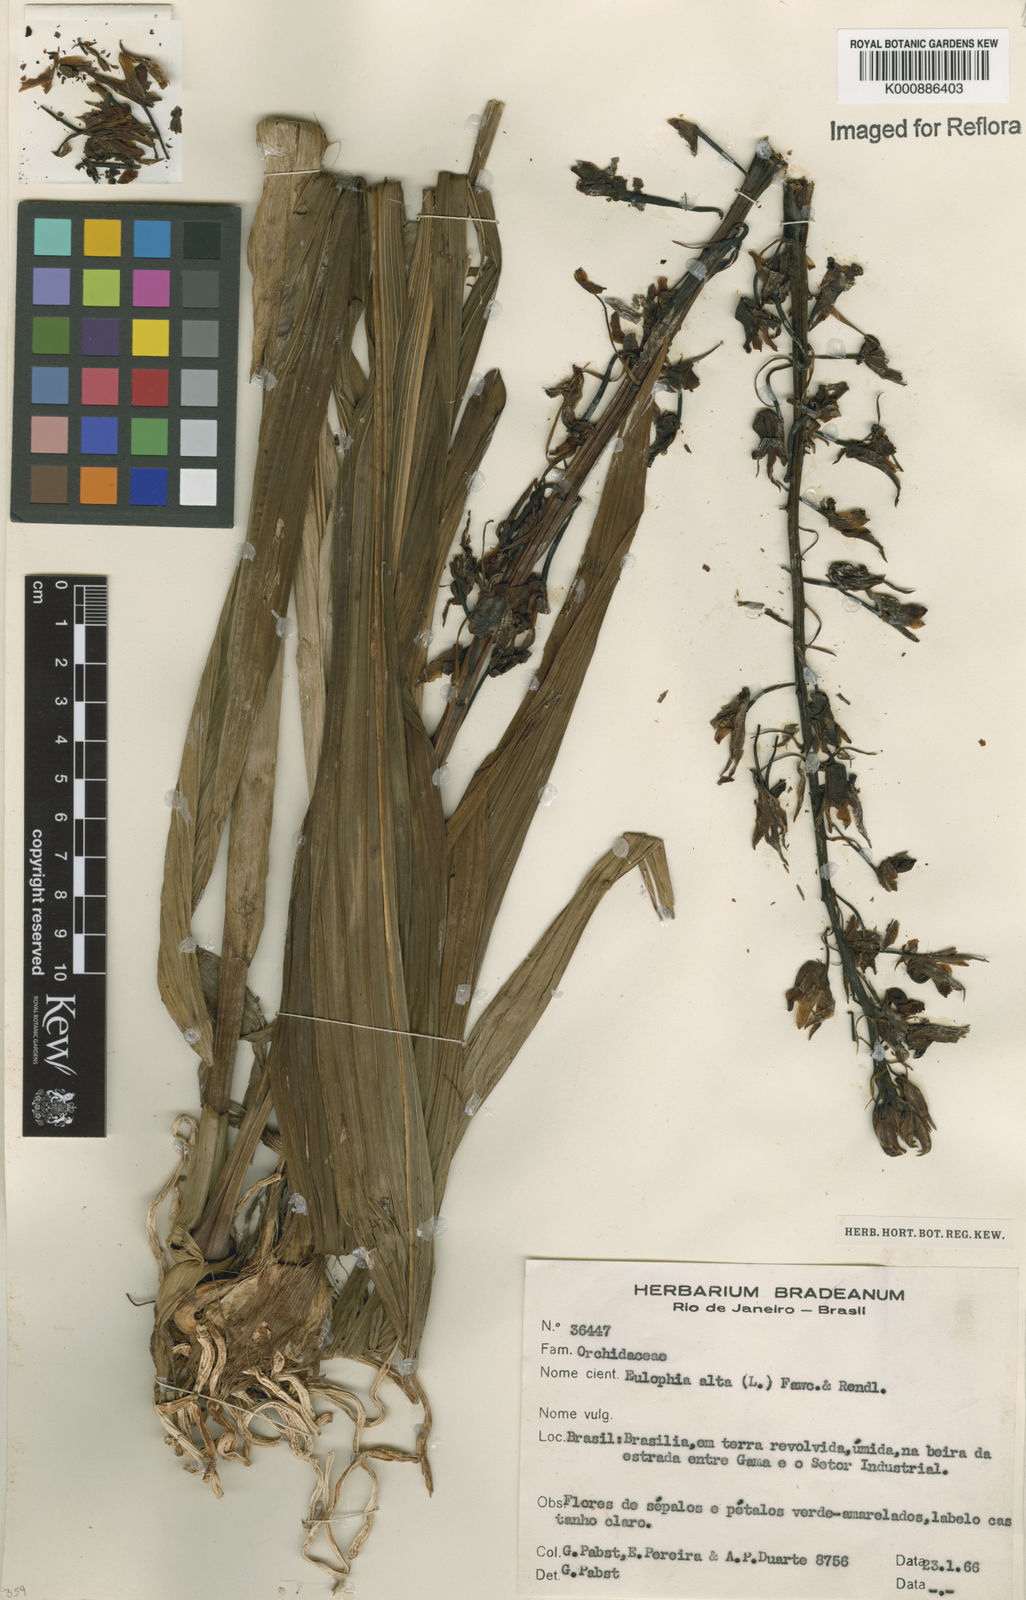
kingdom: Plantae
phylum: Tracheophyta
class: Liliopsida
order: Asparagales
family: Orchidaceae
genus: Eulophia
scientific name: Eulophia alta
